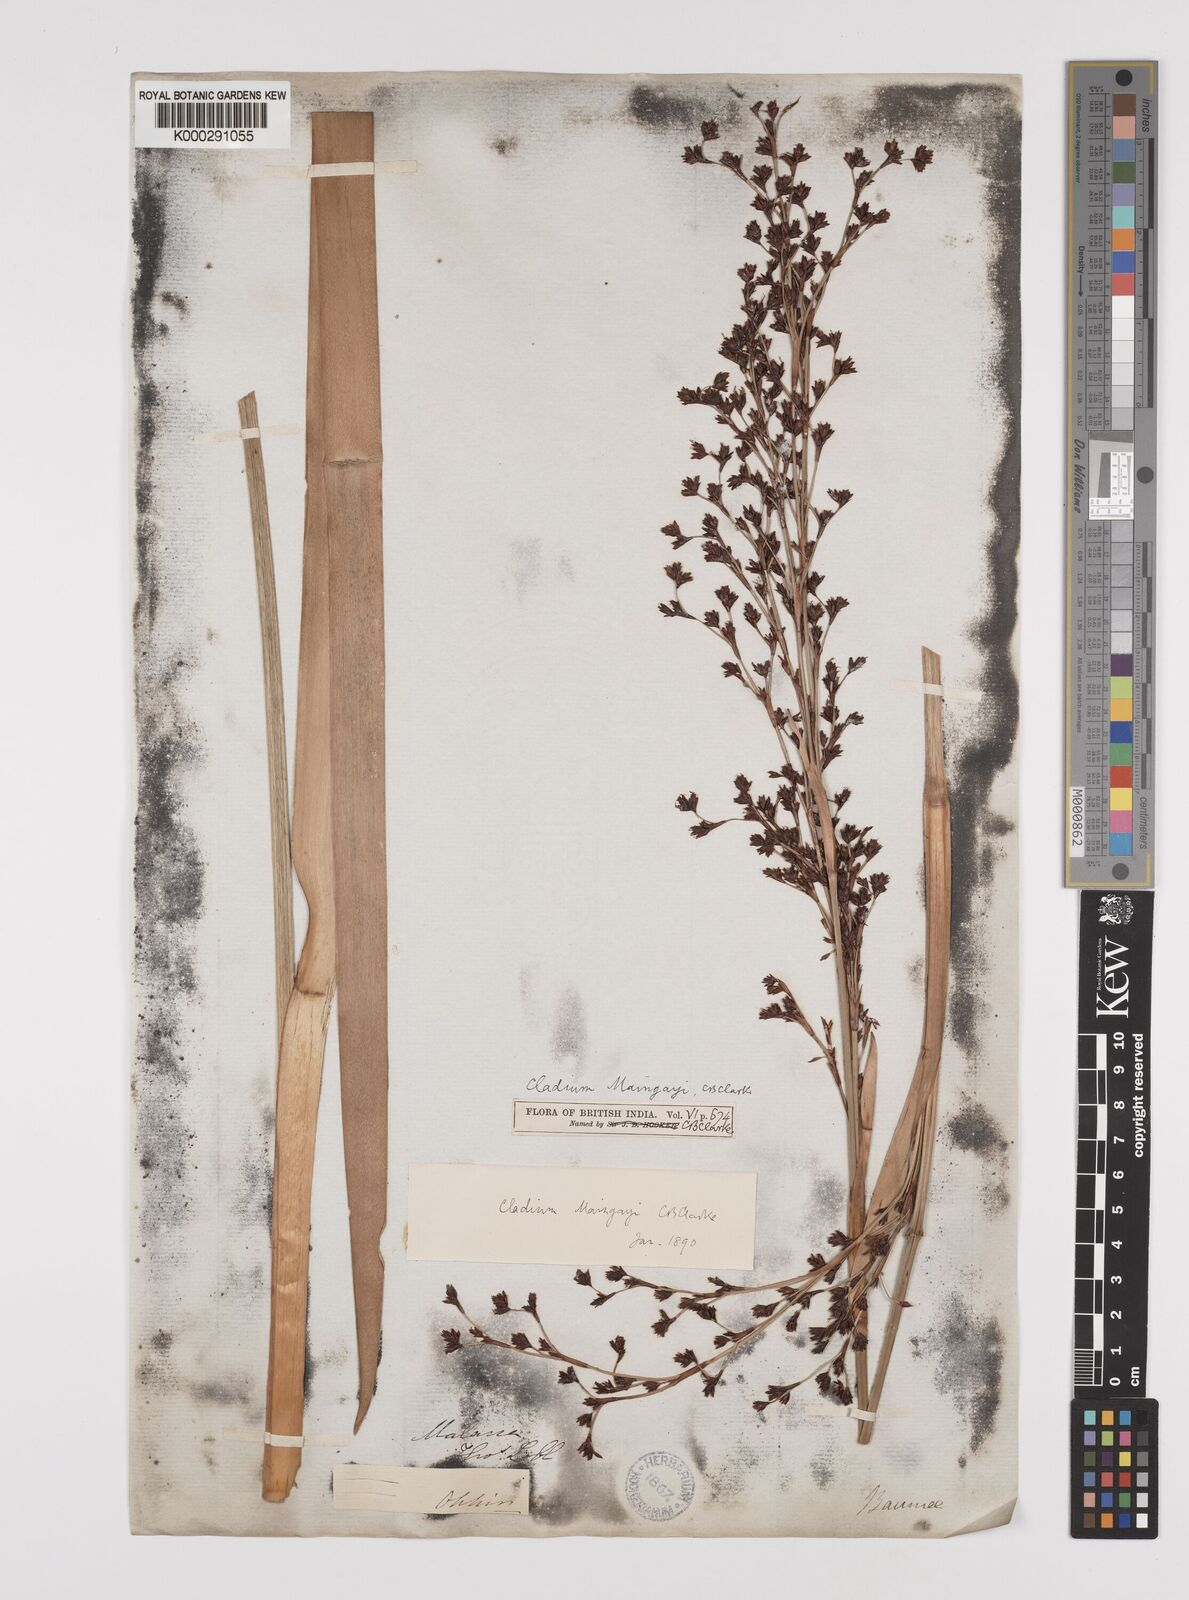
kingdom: Plantae
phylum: Tracheophyta
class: Liliopsida
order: Poales
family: Cyperaceae
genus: Machaerina
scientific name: Machaerina maingayi
